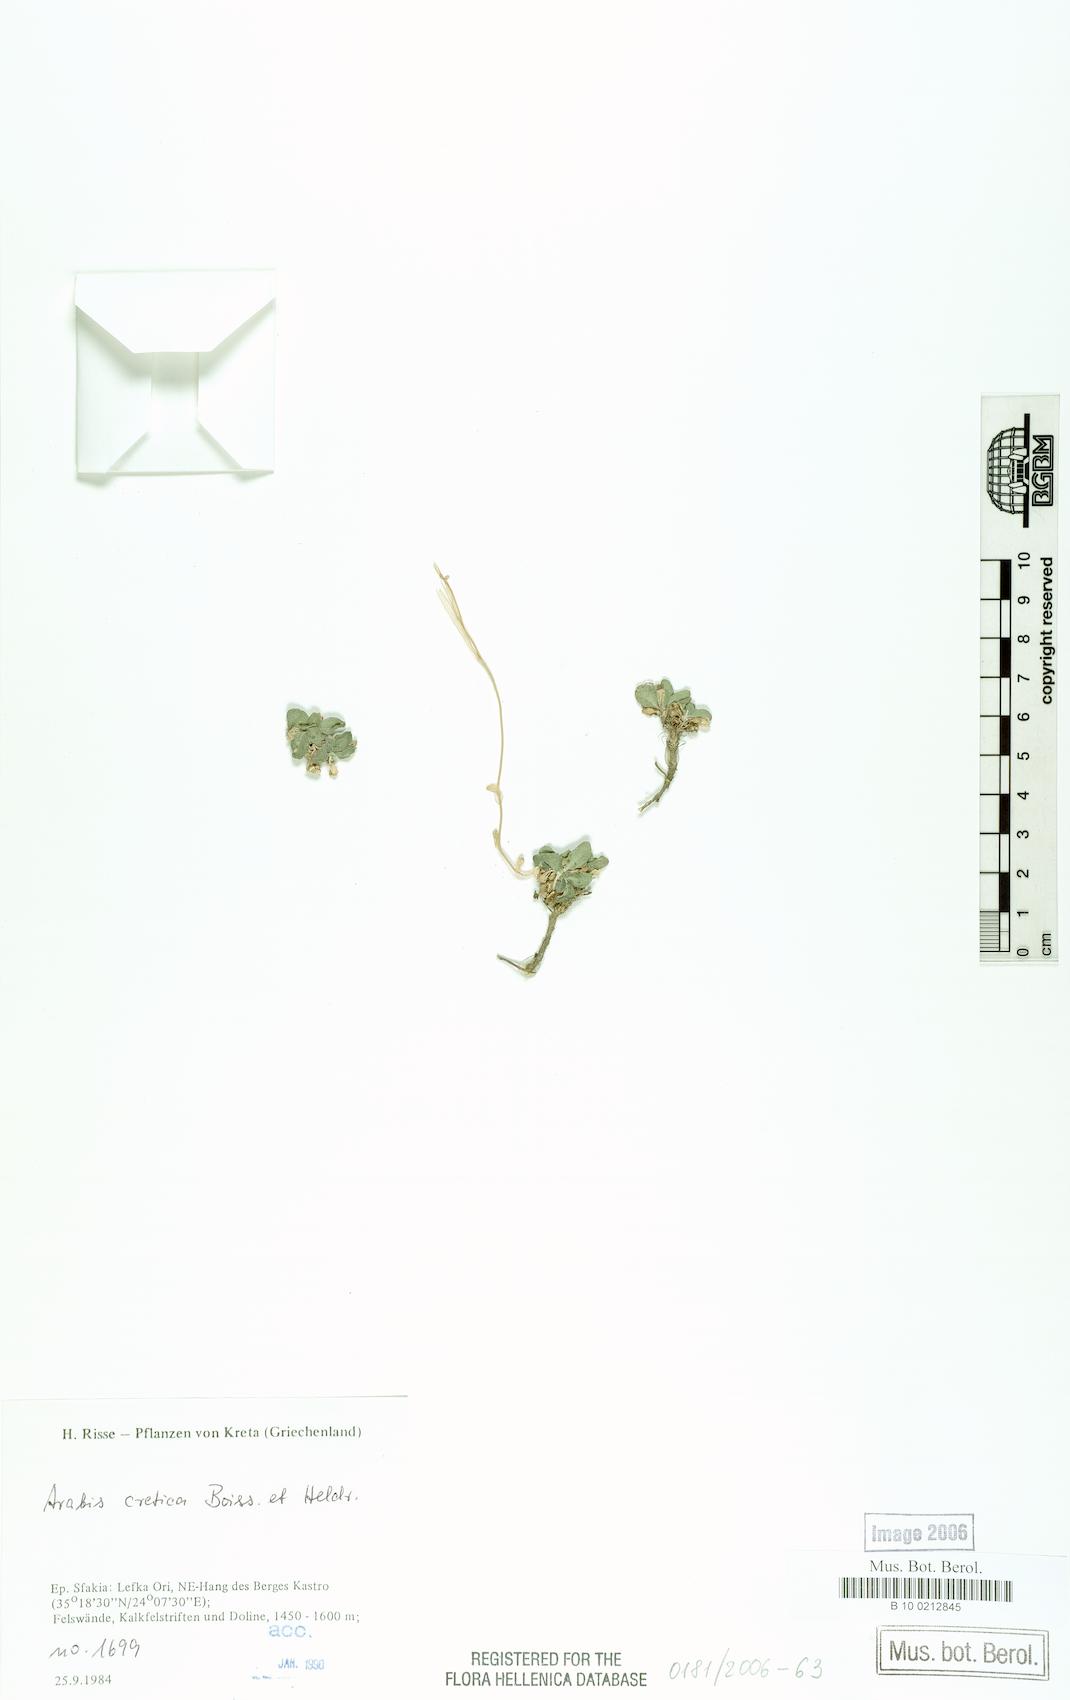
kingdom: Plantae
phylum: Tracheophyta
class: Magnoliopsida
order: Brassicales
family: Brassicaceae
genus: Arabis
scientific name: Arabis cretica
